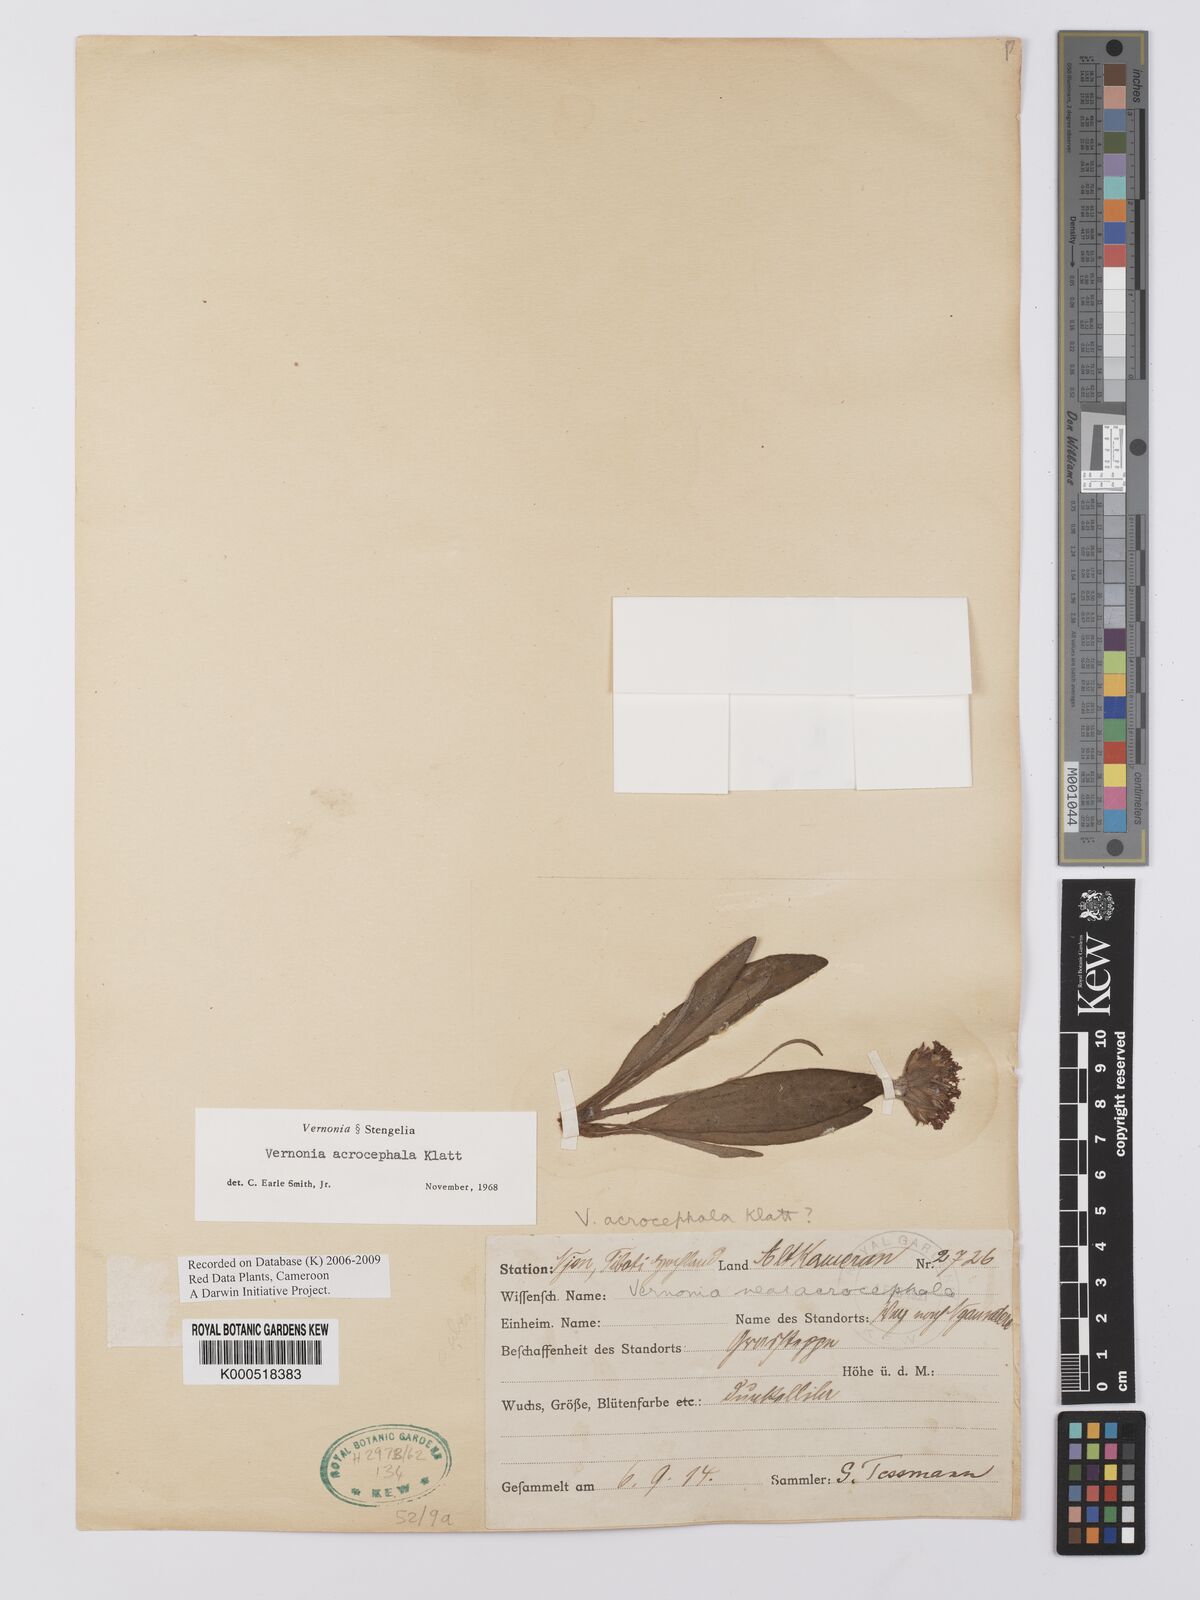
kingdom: Plantae
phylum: Tracheophyta
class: Magnoliopsida
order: Asterales
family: Asteraceae
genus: Vernonella
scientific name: Vernonella acrocephala
